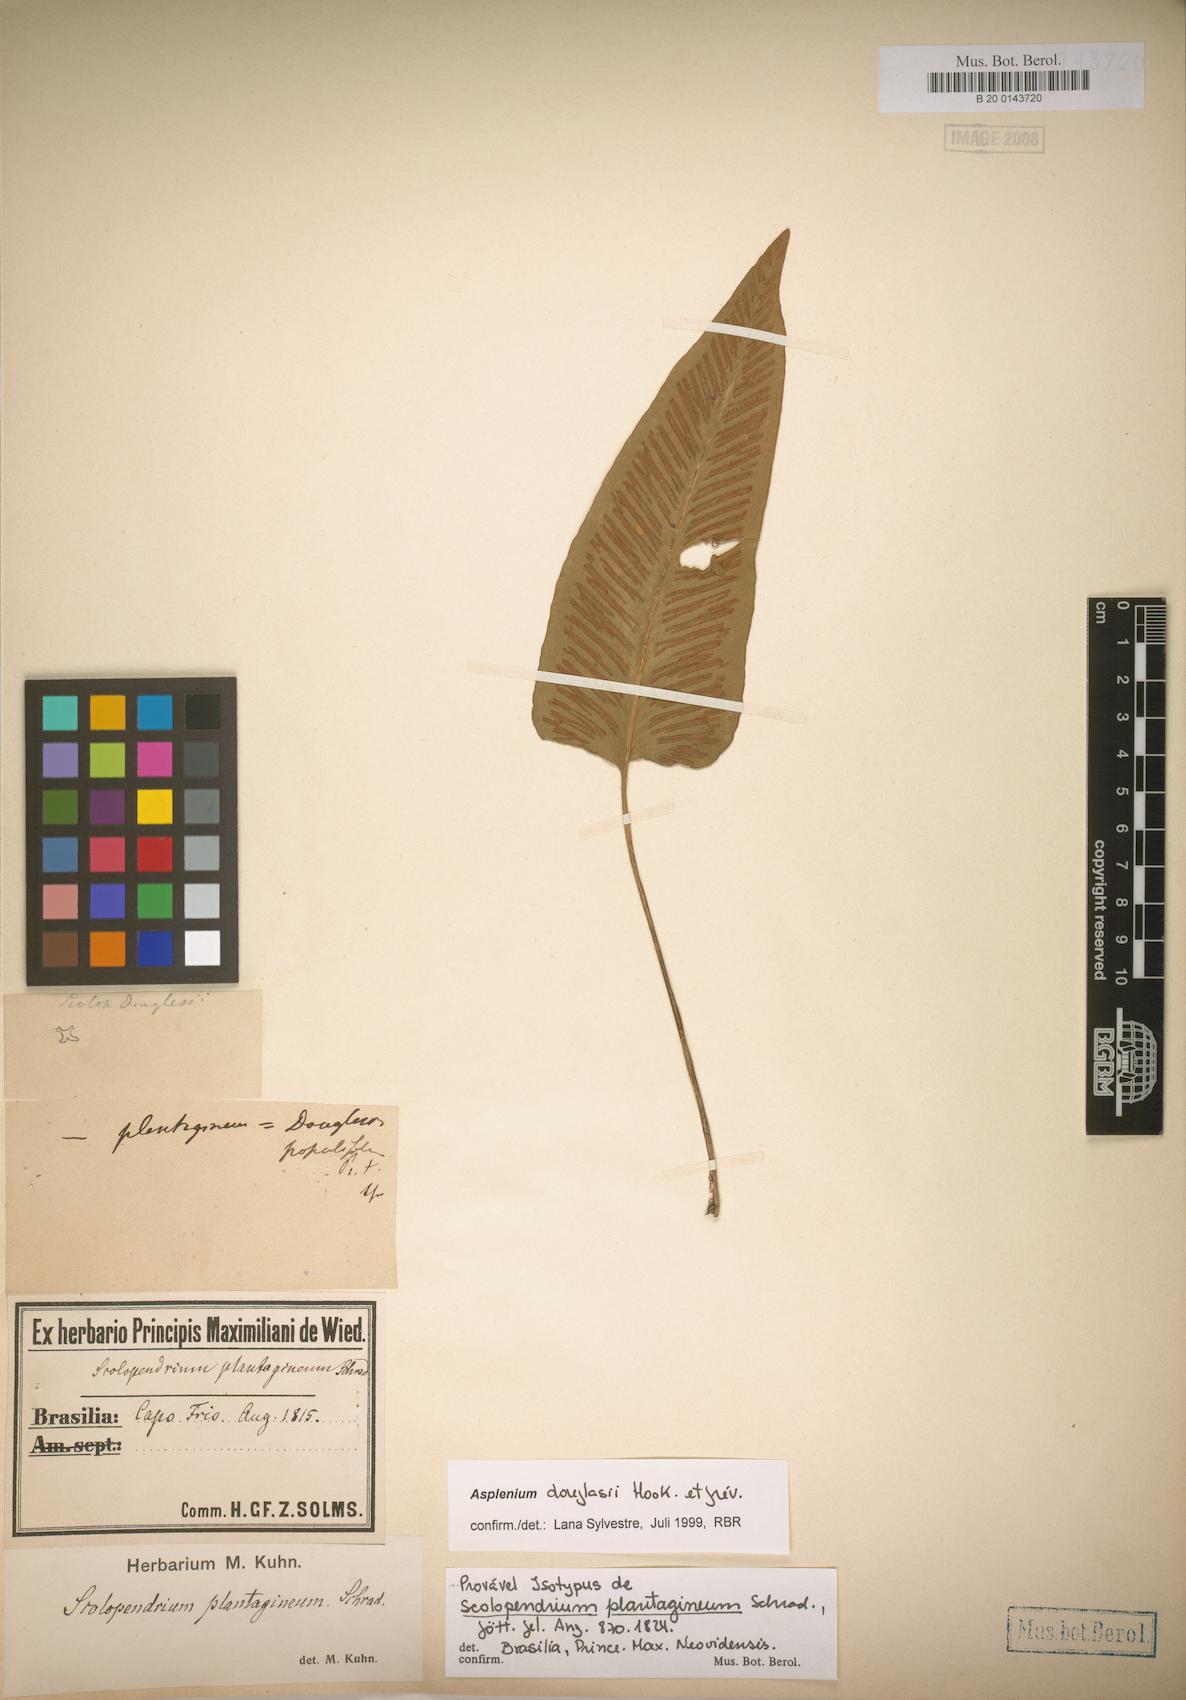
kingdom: Plantae
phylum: Tracheophyta
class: Polypodiopsida
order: Polypodiales
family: Aspleniaceae
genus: Asplenium
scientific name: Asplenium douglasii
